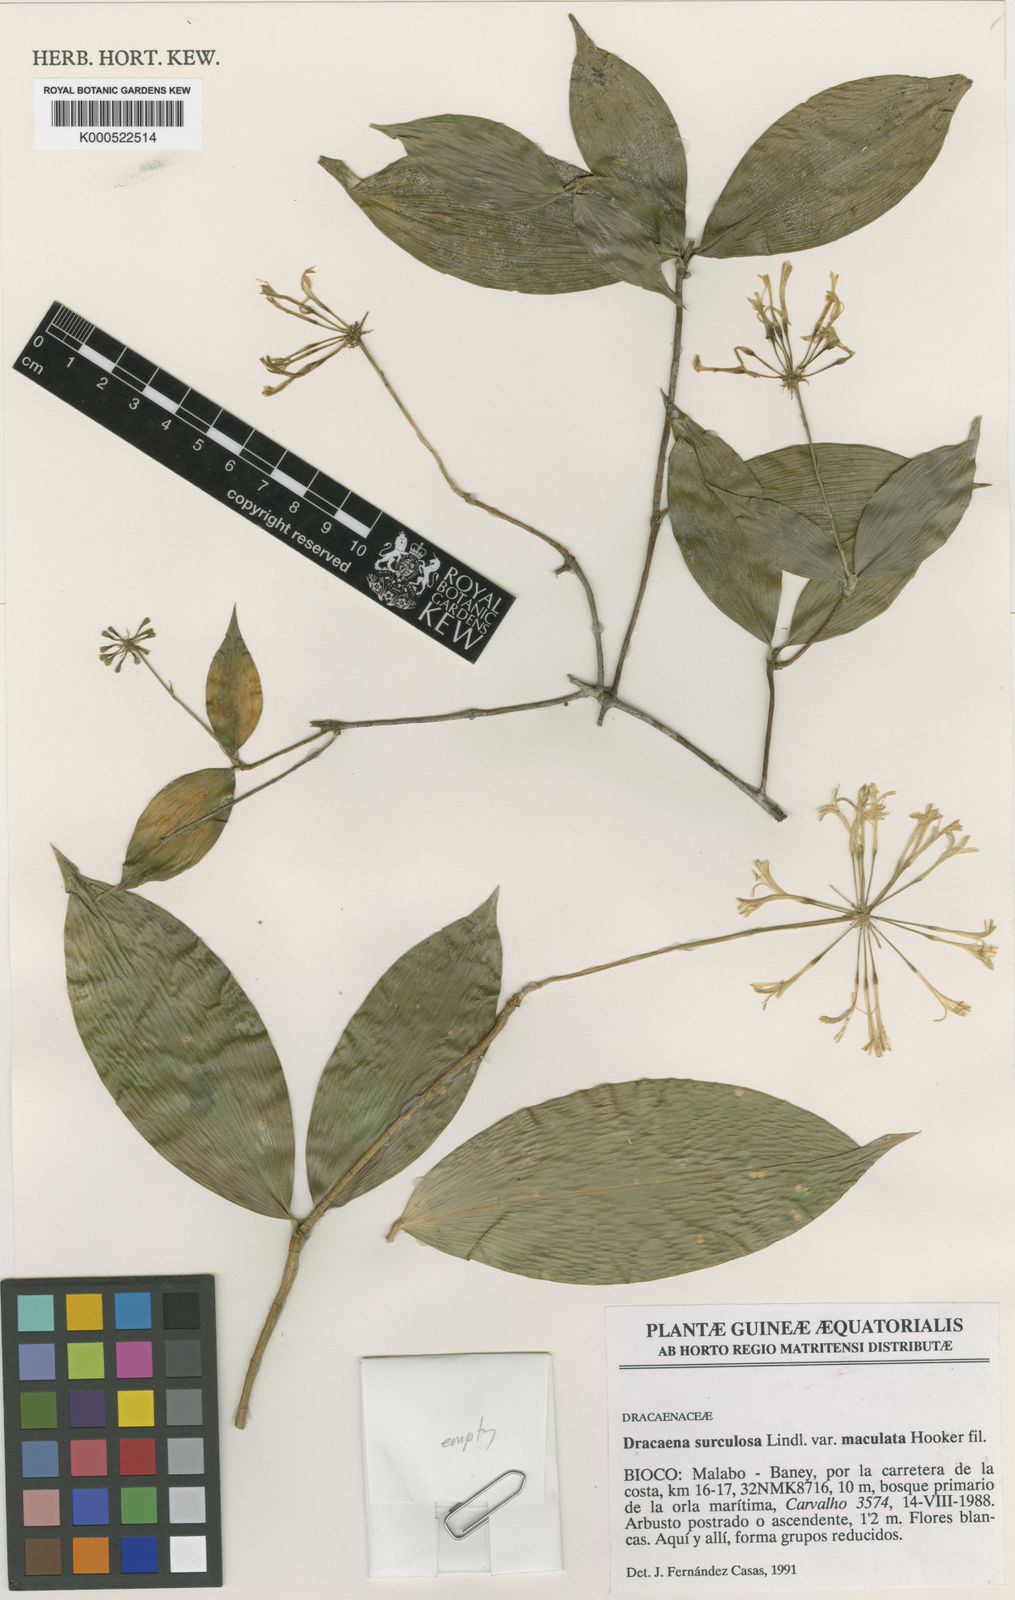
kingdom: Plantae
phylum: Tracheophyta
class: Liliopsida
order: Asparagales
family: Asparagaceae
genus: Dracaena
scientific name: Dracaena surculosa
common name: Spotted dracaena
